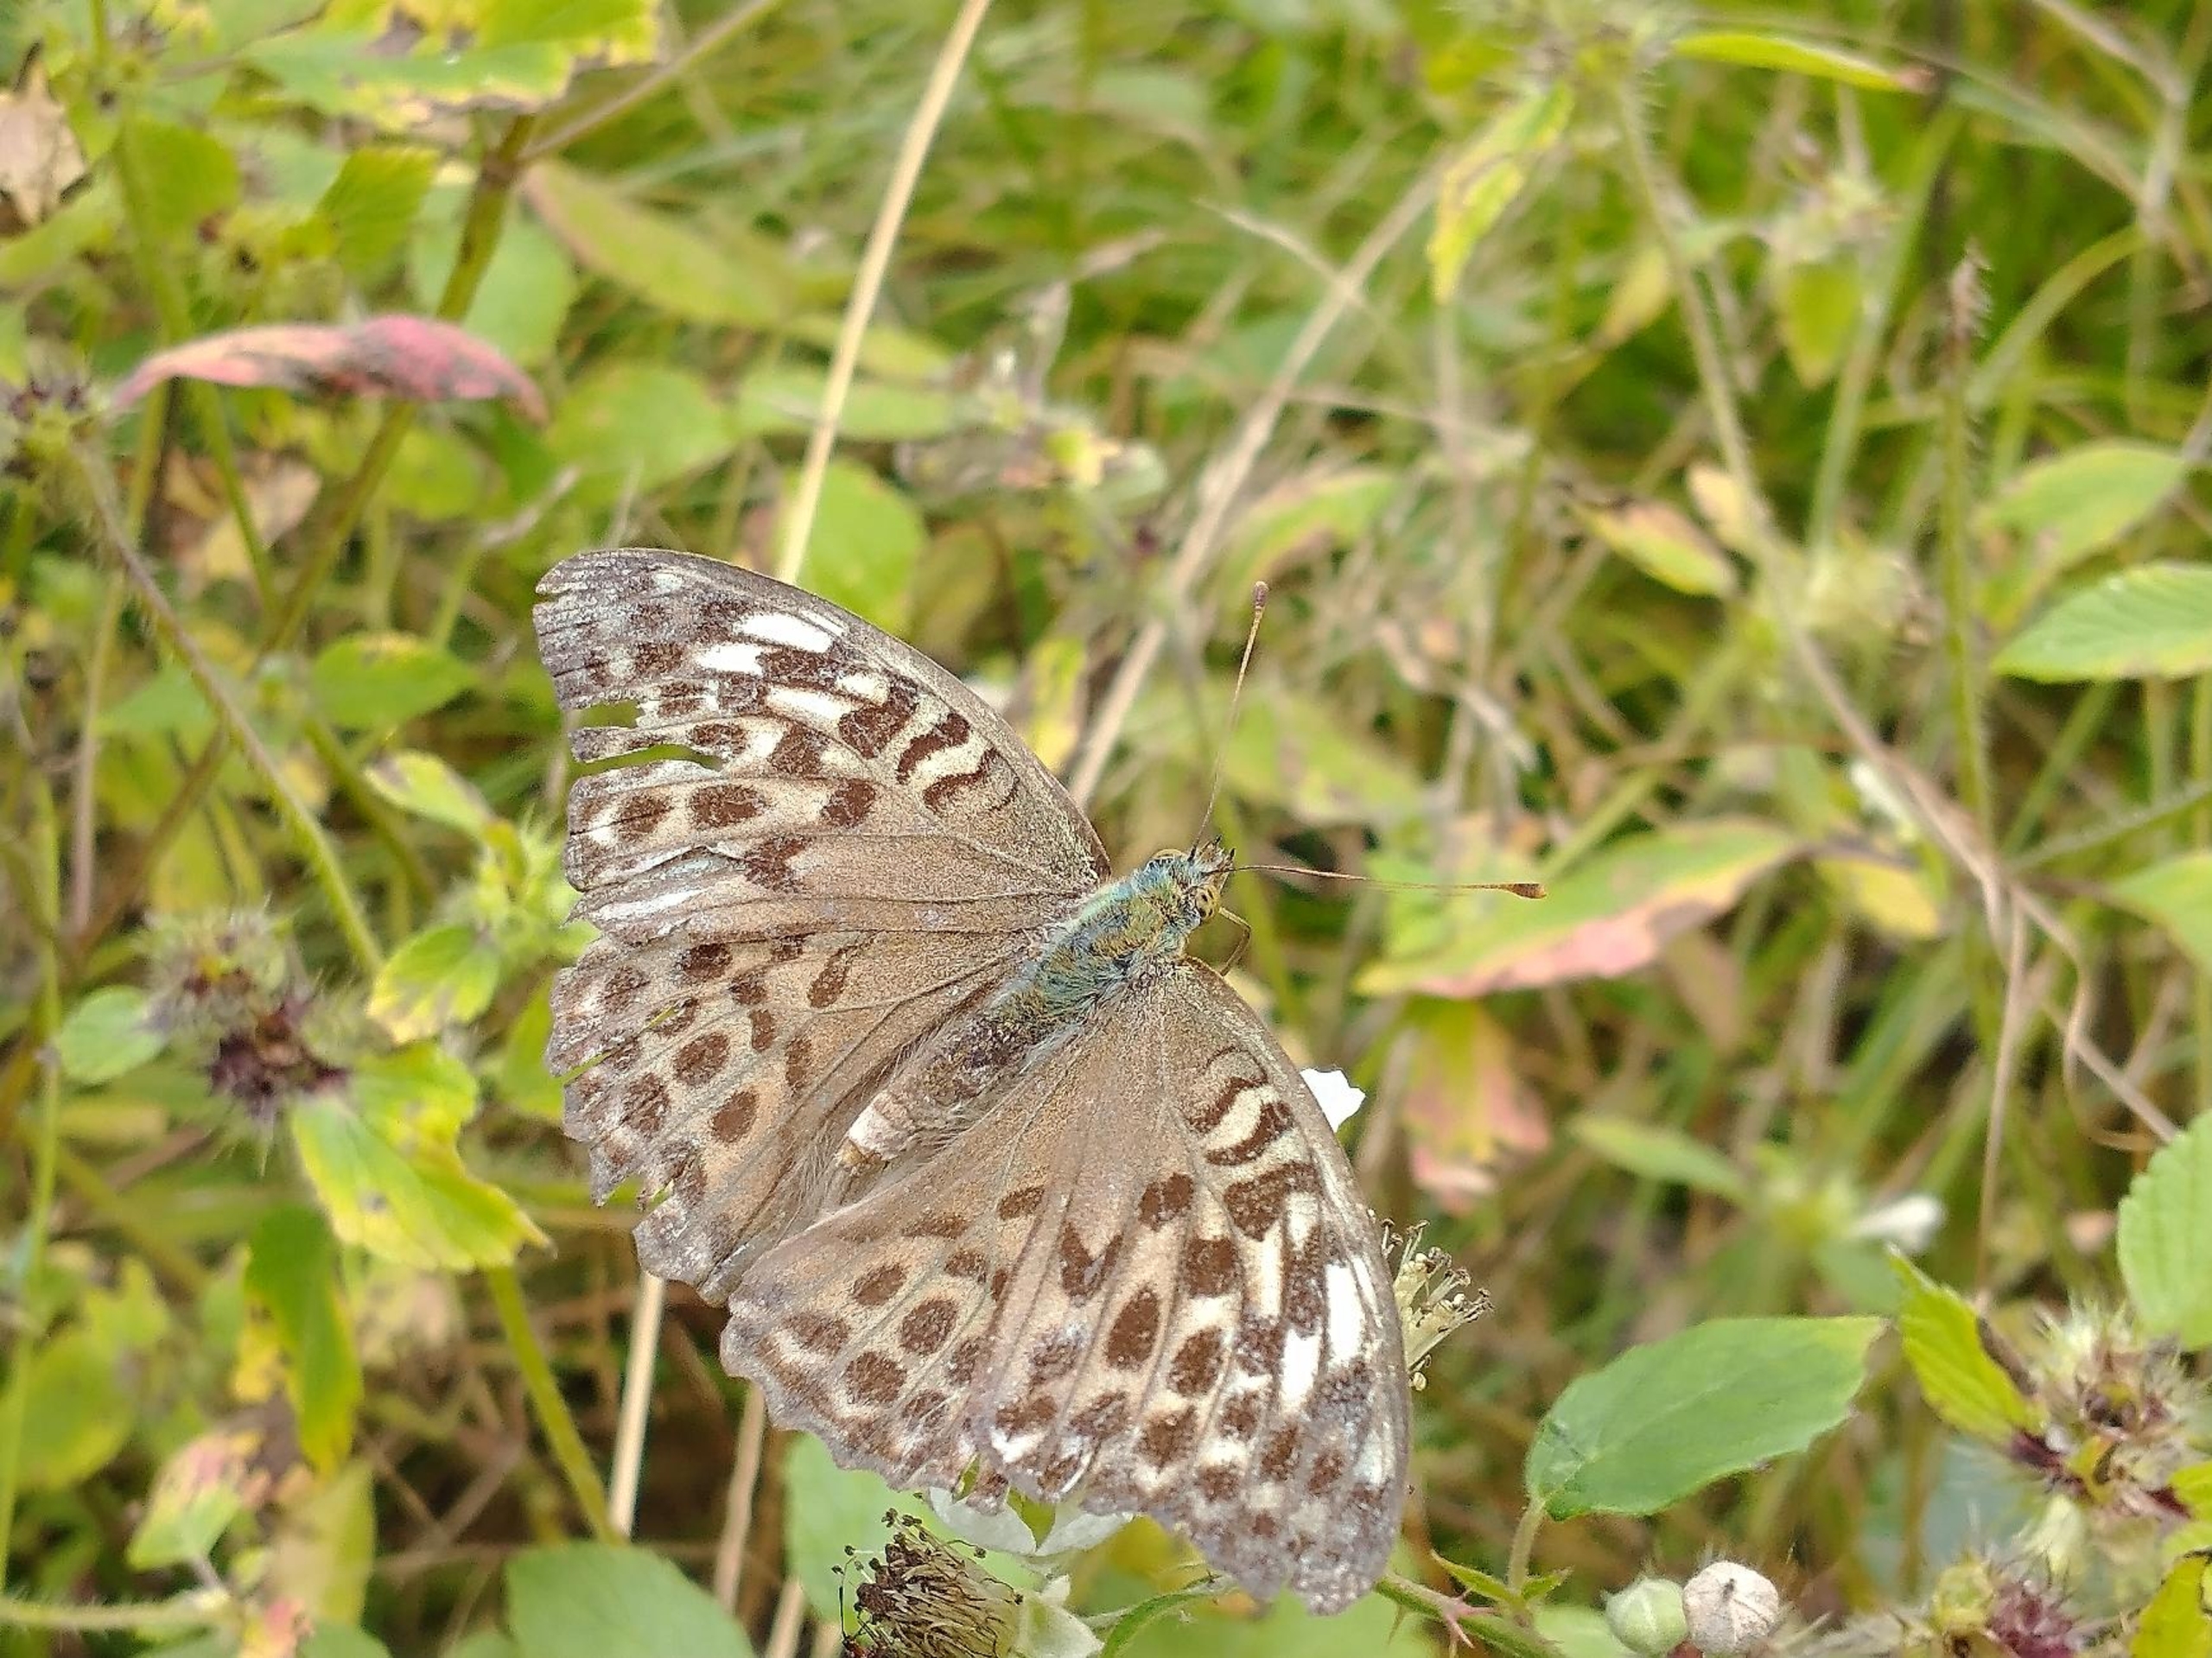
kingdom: Animalia
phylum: Arthropoda
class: Insecta
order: Lepidoptera
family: Nymphalidae
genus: Argynnis
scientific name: Argynnis paphia
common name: Kejserkåbe
